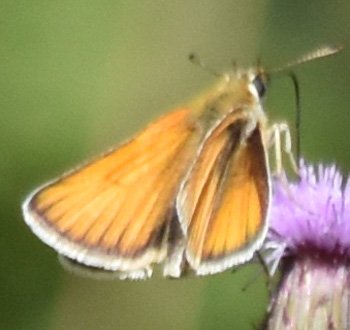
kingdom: Animalia
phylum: Arthropoda
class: Insecta
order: Lepidoptera
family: Hesperiidae
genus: Thymelicus
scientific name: Thymelicus lineola
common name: European Skipper
